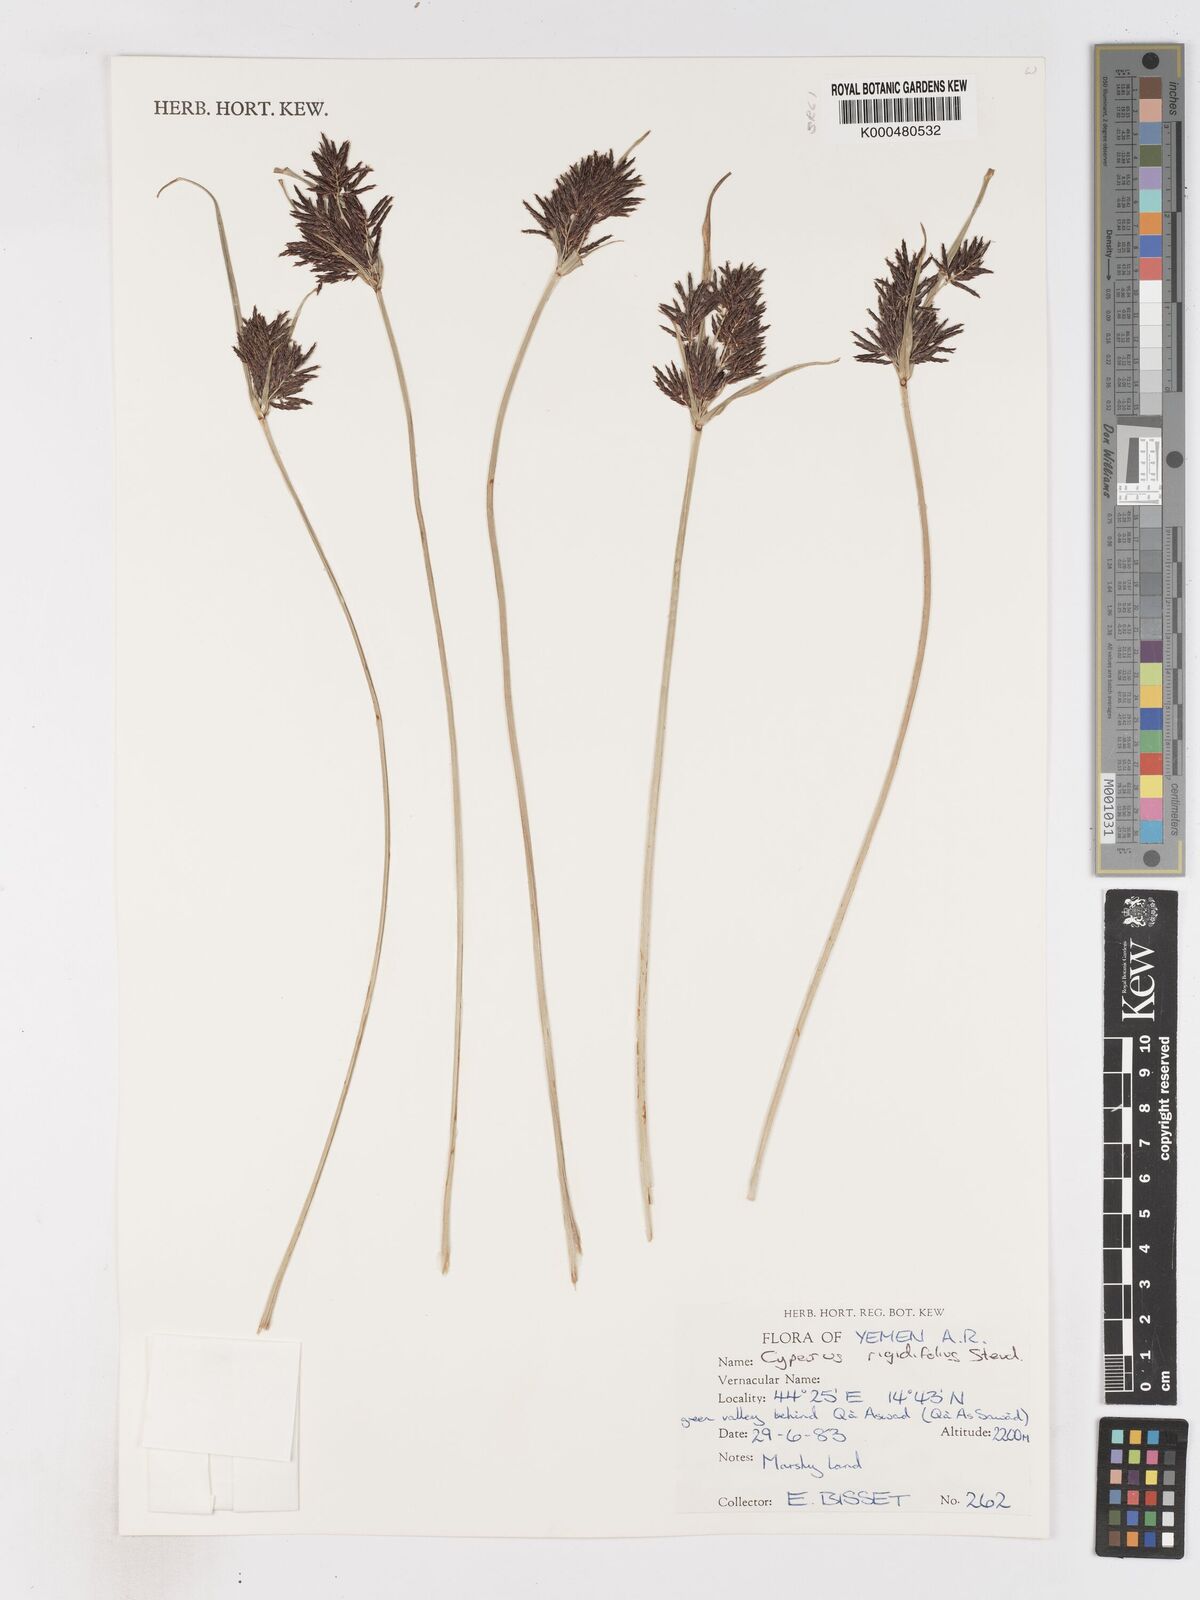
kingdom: Plantae
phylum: Tracheophyta
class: Liliopsida
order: Poales
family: Cyperaceae
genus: Cyperus
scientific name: Cyperus rigidifolius
